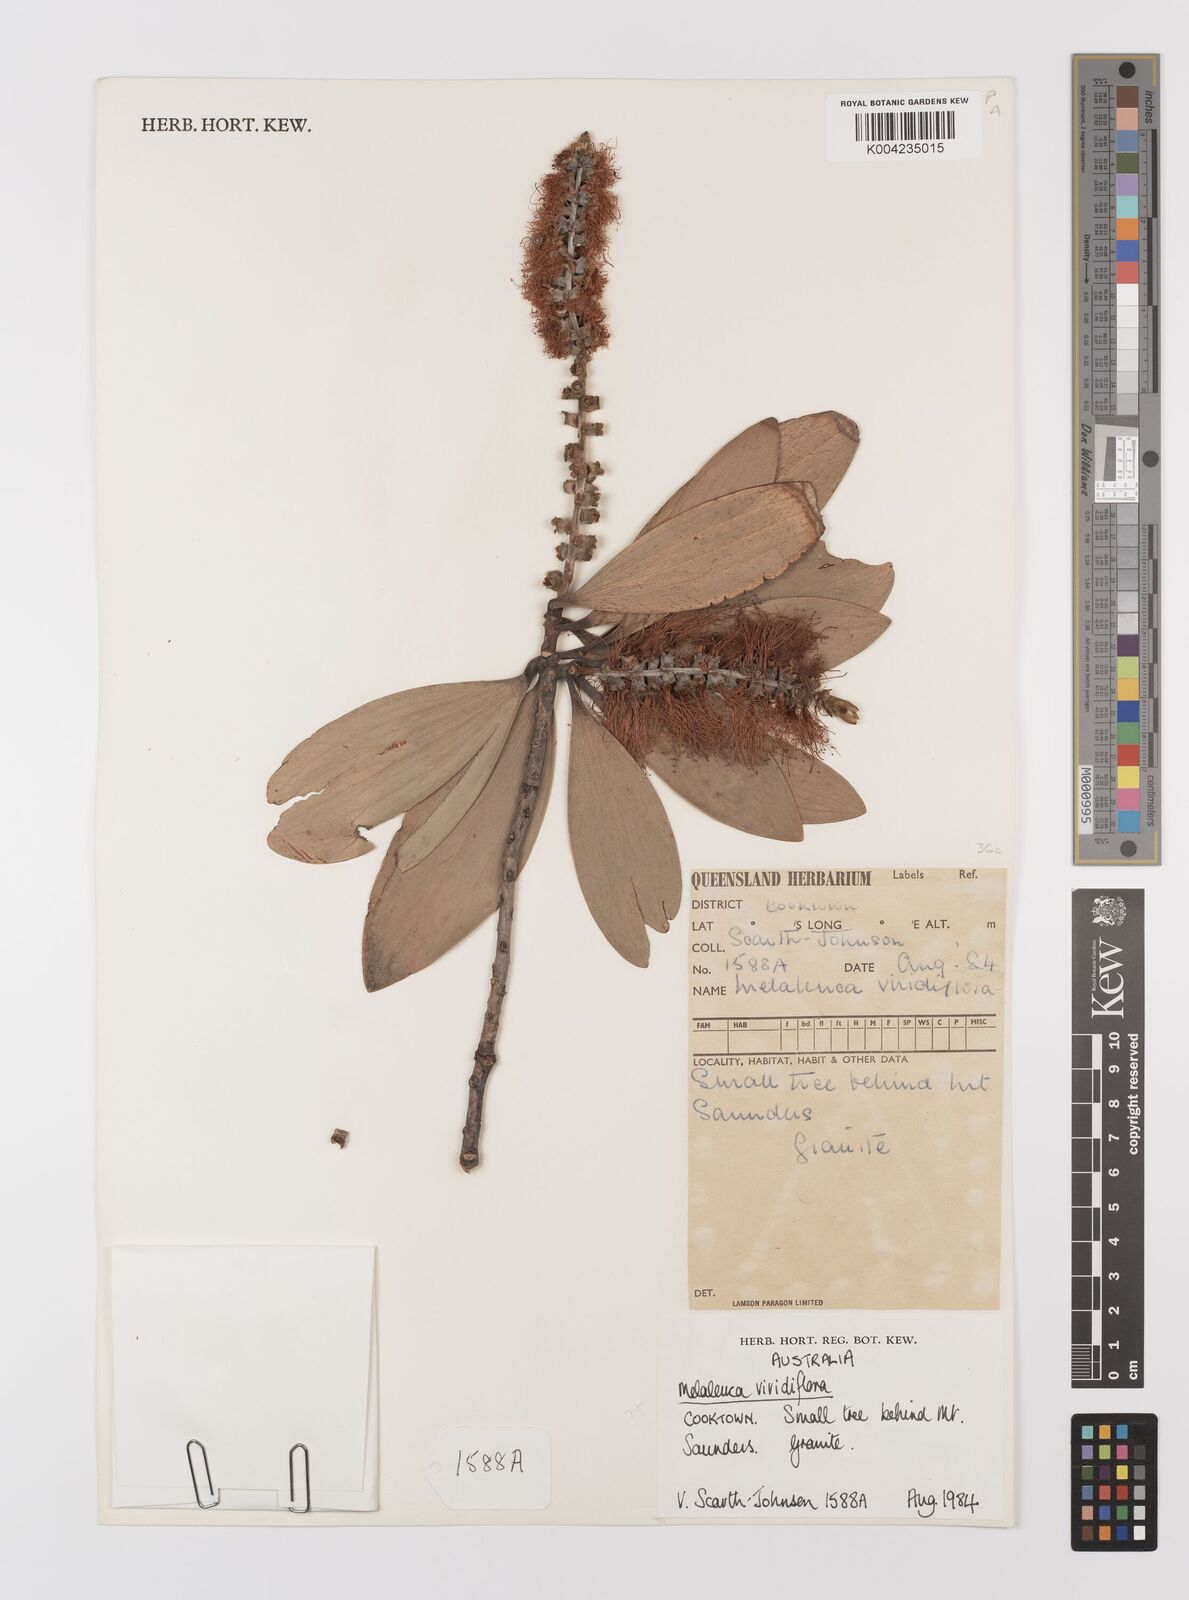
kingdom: Plantae
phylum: Tracheophyta
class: Magnoliopsida
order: Myrtales
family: Myrtaceae
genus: Melaleuca
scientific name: Melaleuca viridiflora
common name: Brown-leaved paperbark
